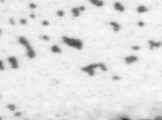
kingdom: Animalia
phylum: Chordata
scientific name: Chordata
